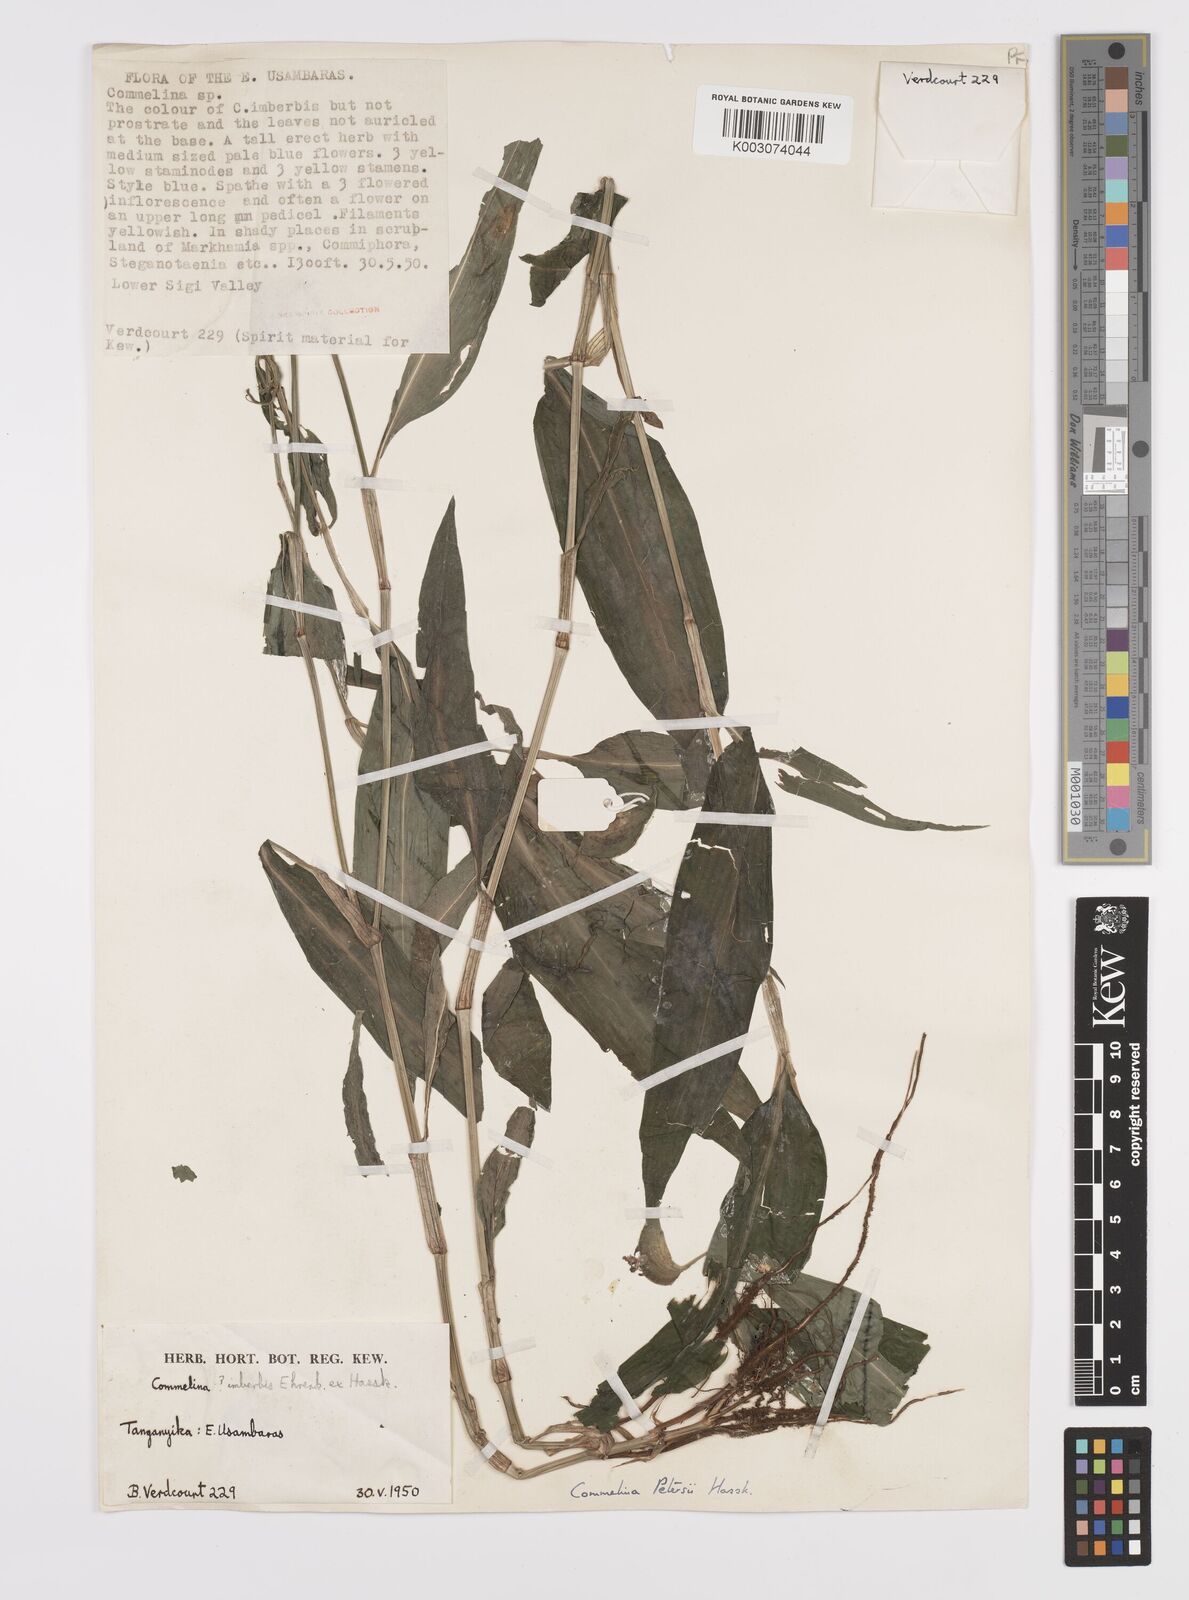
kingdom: Plantae
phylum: Tracheophyta
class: Liliopsida
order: Commelinales
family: Commelinaceae
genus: Commelina
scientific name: Commelina petersii
